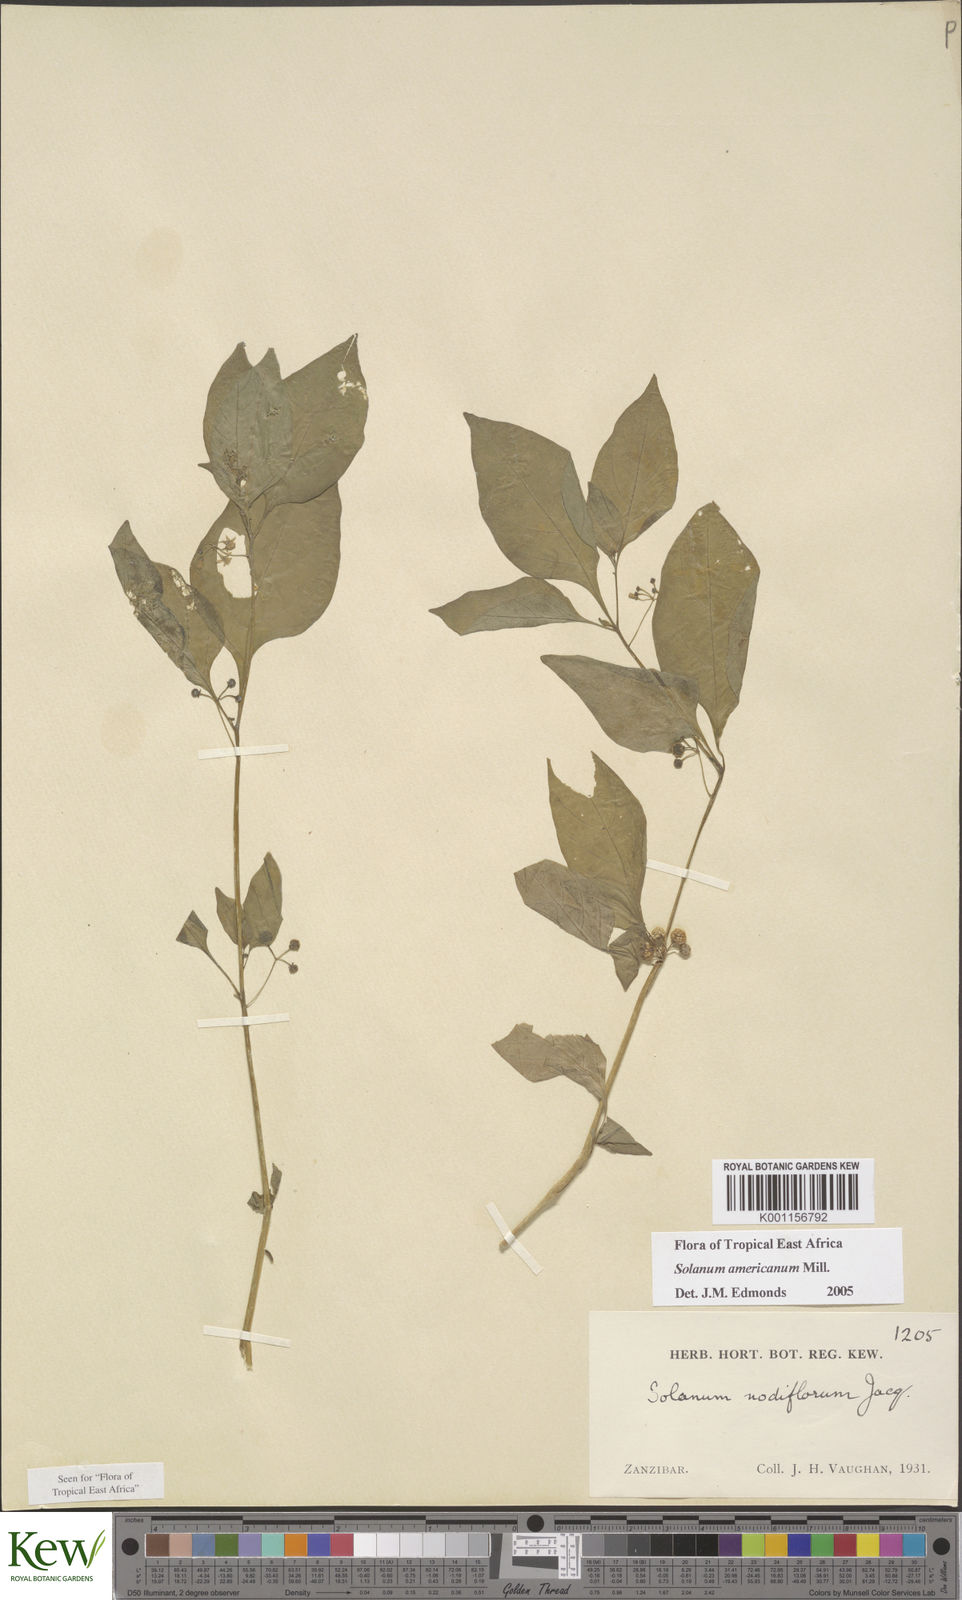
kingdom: Plantae
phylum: Tracheophyta
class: Magnoliopsida
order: Solanales
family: Solanaceae
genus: Solanum
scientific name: Solanum americanum
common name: American black nightshade
